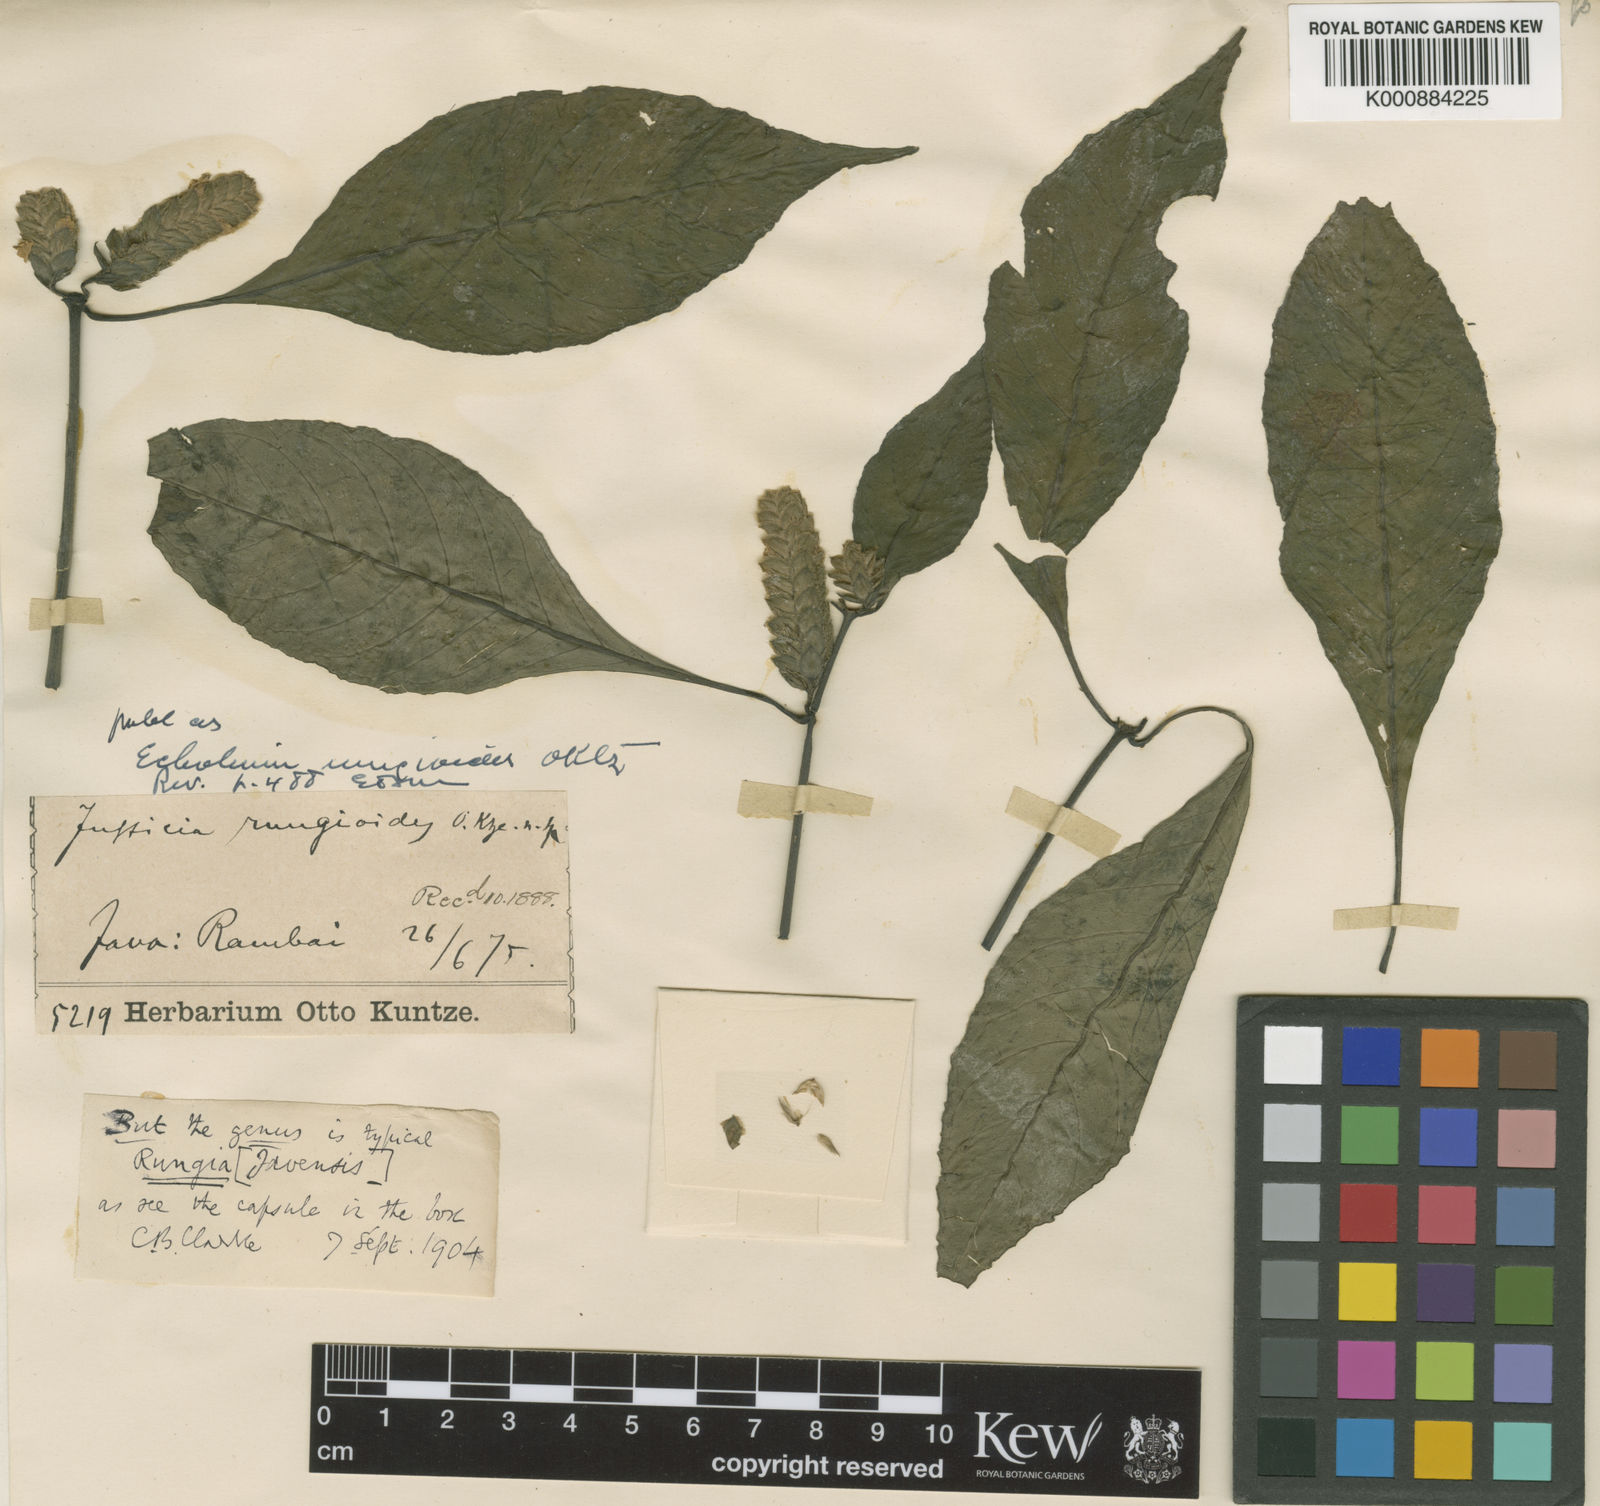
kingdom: Plantae
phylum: Tracheophyta
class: Magnoliopsida
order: Lamiales
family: Acanthaceae
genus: Justicia
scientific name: Justicia
